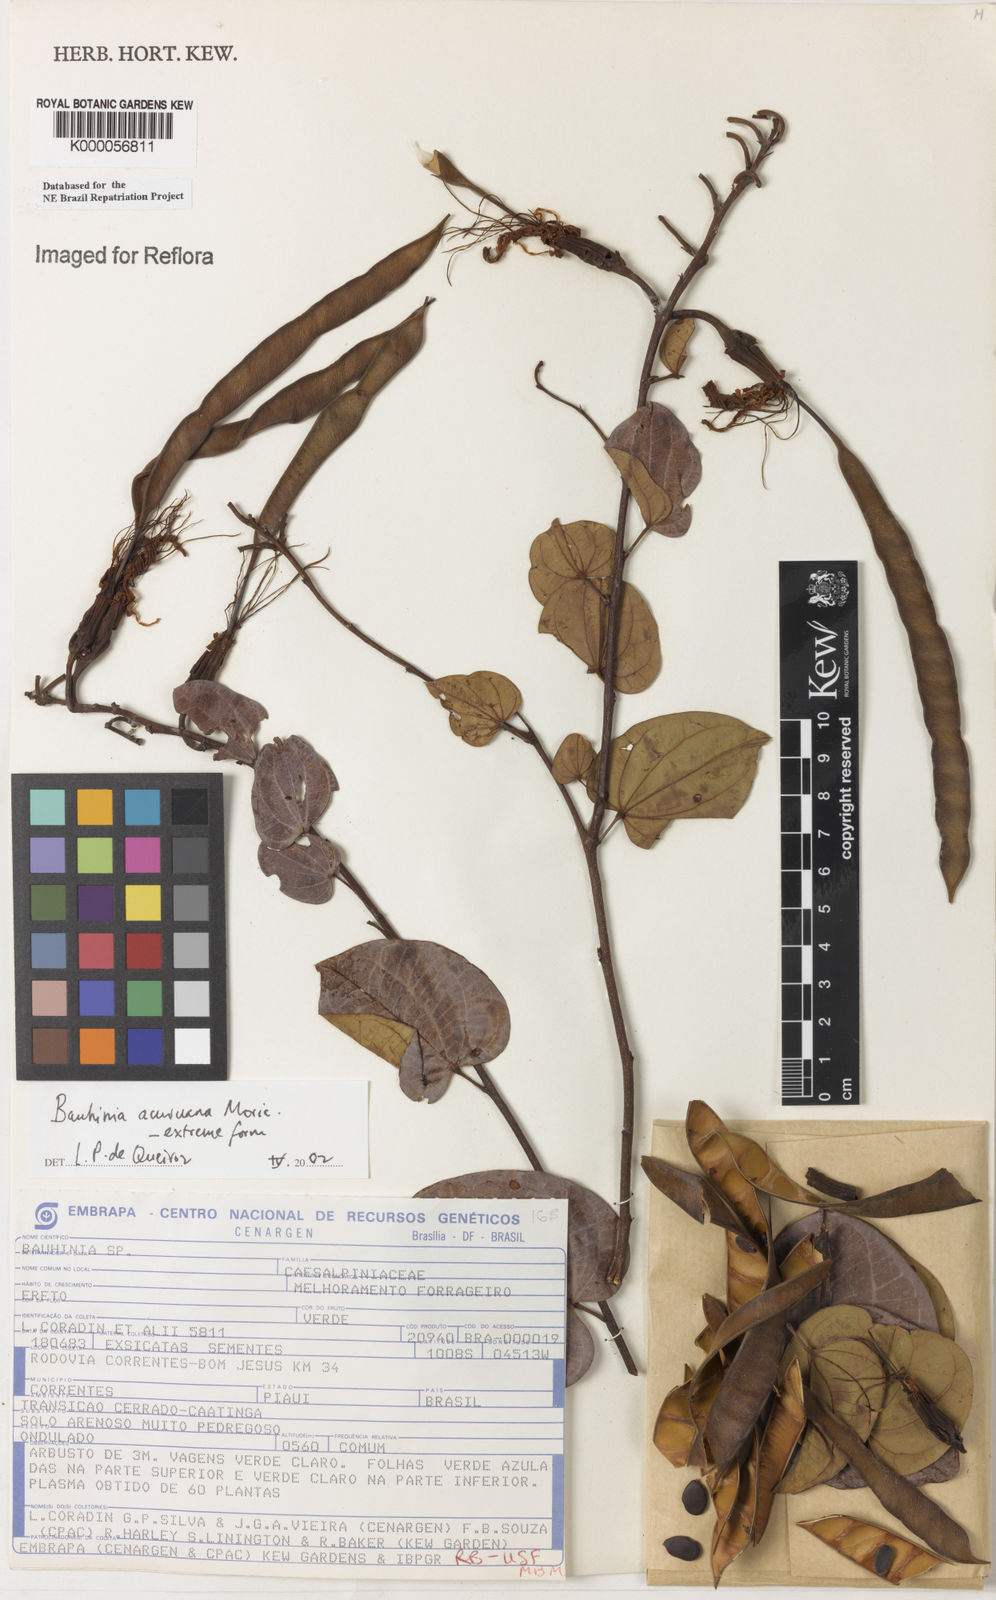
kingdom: Plantae
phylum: Tracheophyta
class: Magnoliopsida
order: Fabales
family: Fabaceae
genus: Bauhinia
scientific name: Bauhinia acuruana
